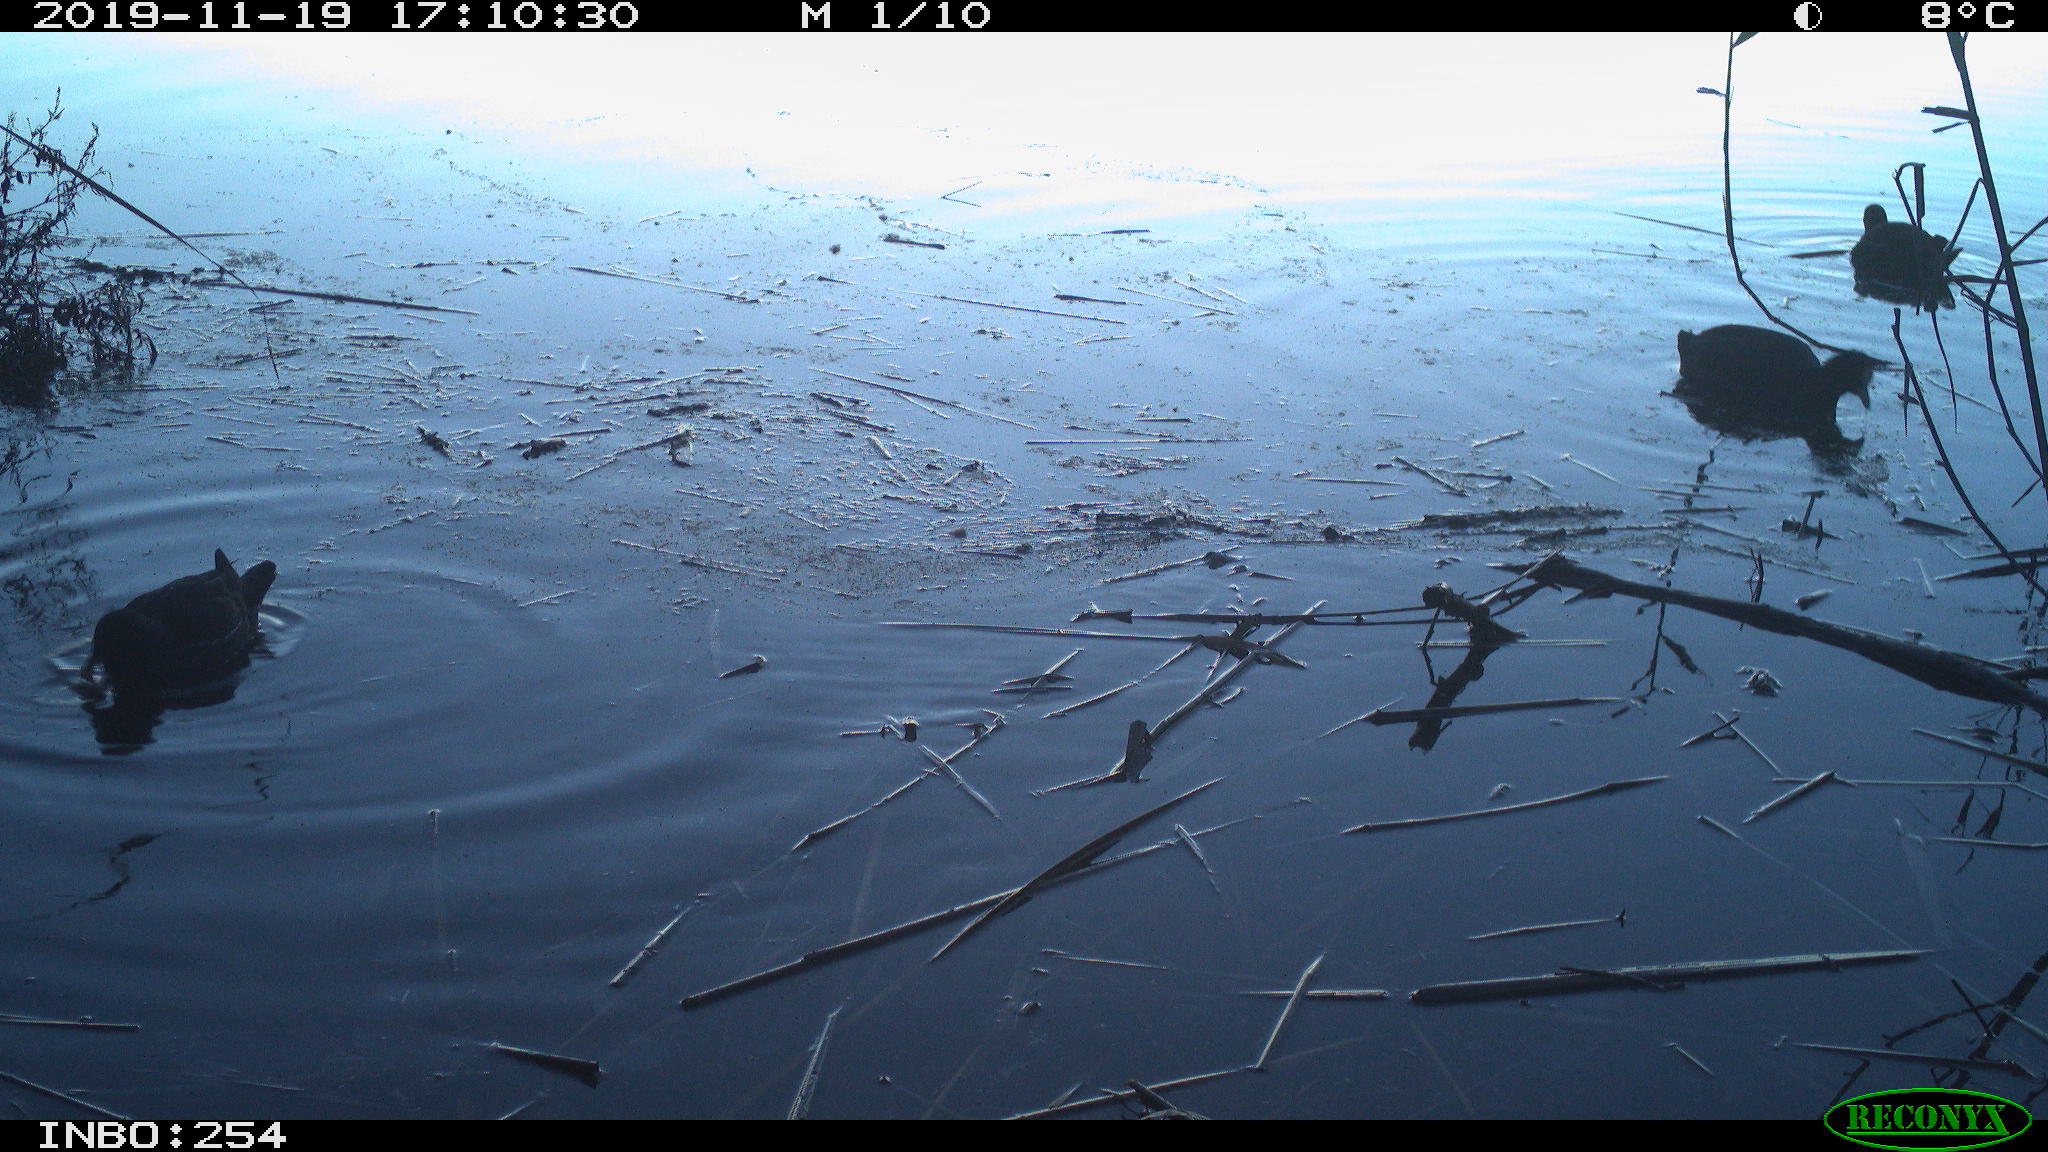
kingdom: Animalia
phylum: Chordata
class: Aves
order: Gruiformes
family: Rallidae
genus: Fulica
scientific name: Fulica atra
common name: Eurasian coot
